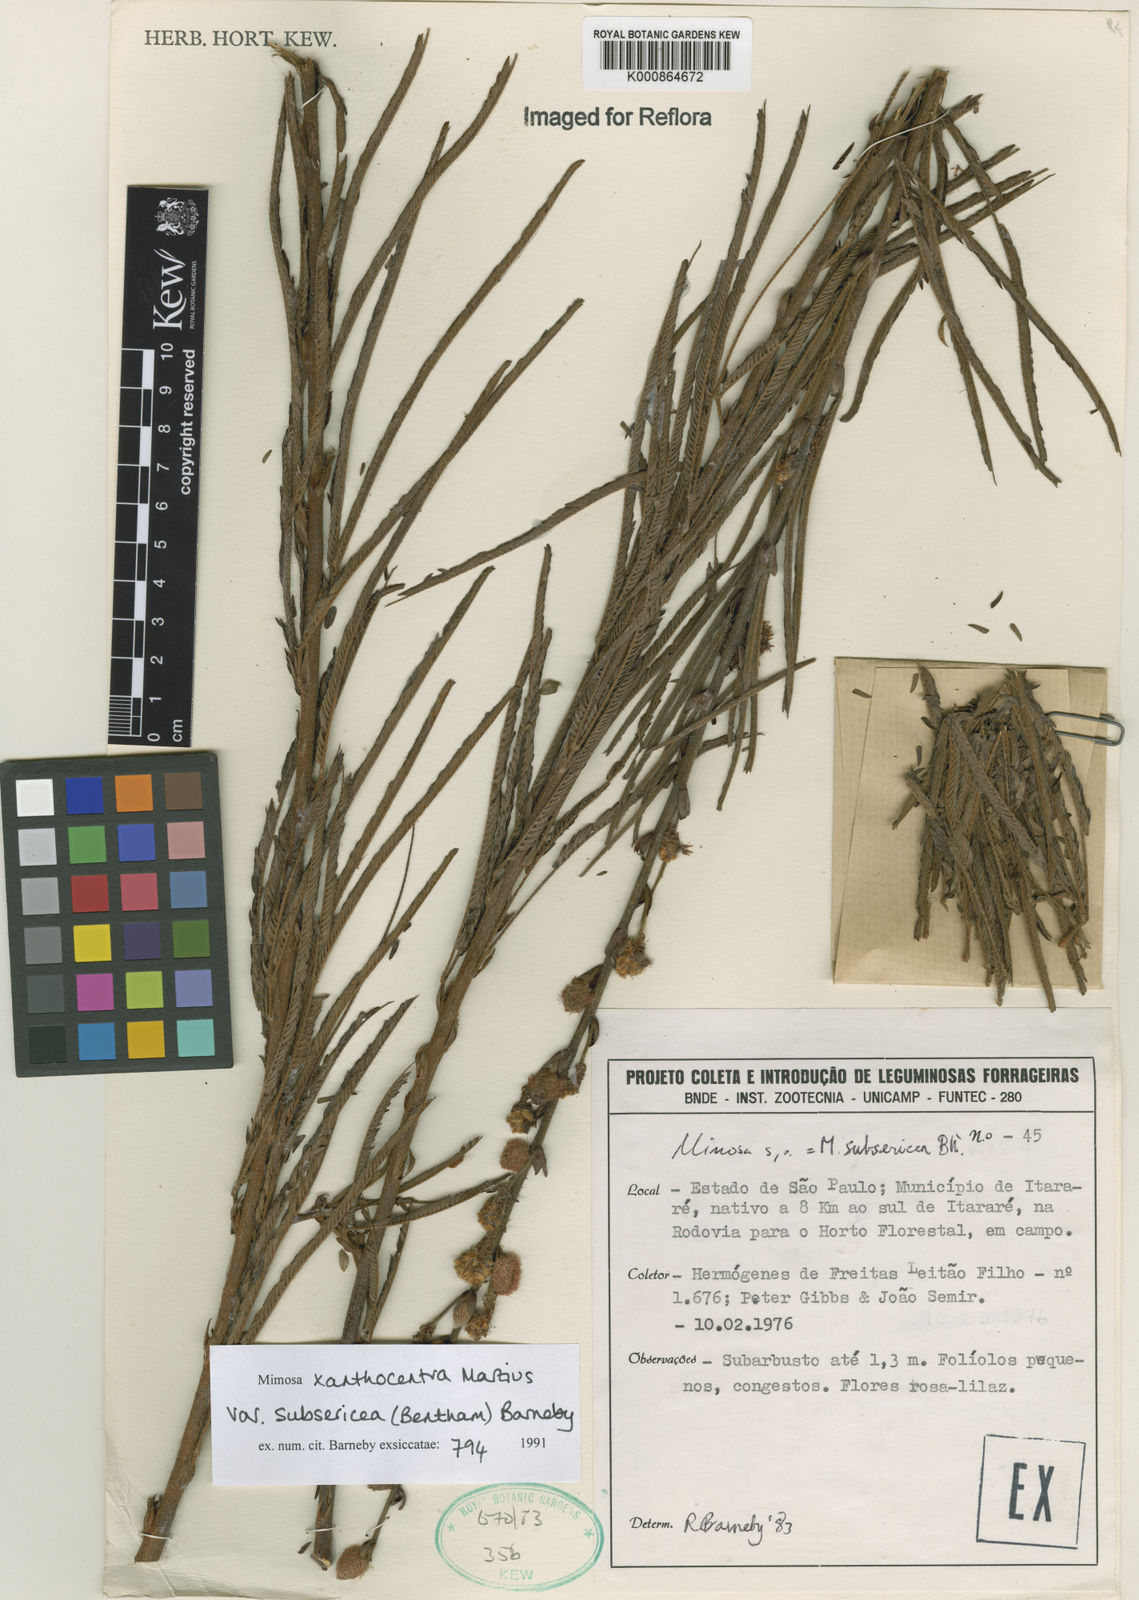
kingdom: Plantae
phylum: Tracheophyta
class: Magnoliopsida
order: Fabales
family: Fabaceae
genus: Mimosa
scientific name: Mimosa xanthocentra
